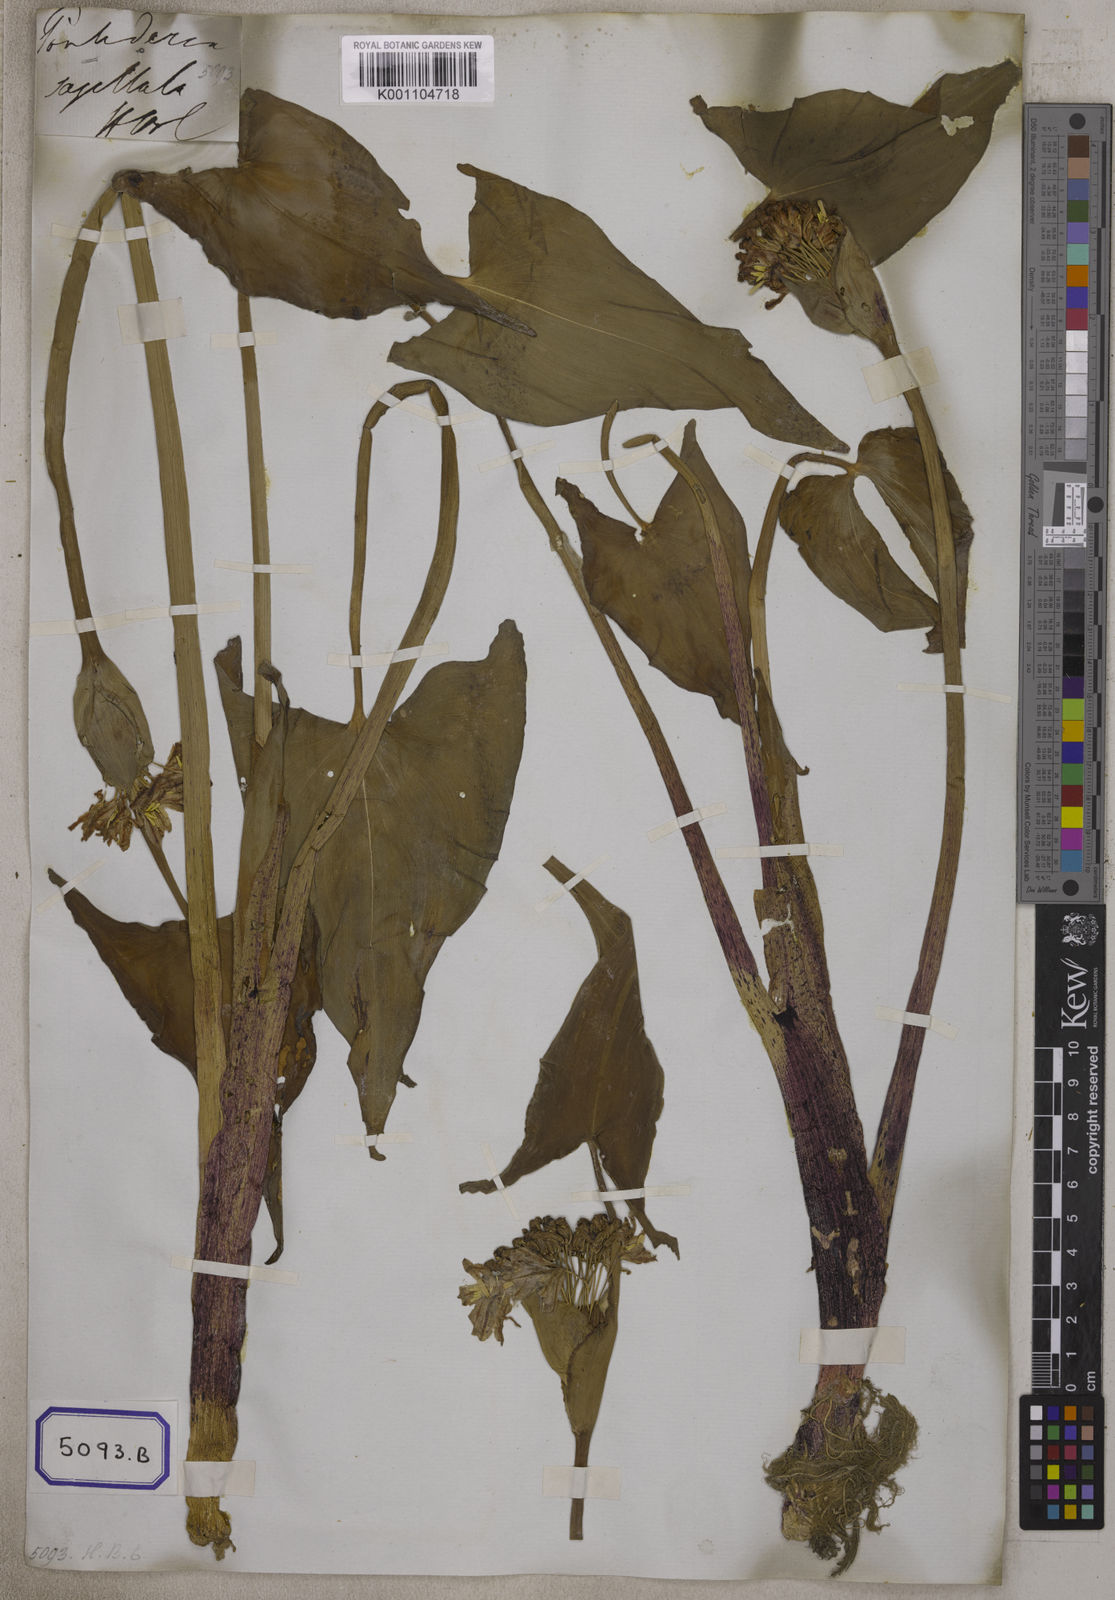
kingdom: Plantae
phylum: Tracheophyta
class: Liliopsida
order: Commelinales
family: Pontederiaceae
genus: Pontederia
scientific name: Pontederia hastata
